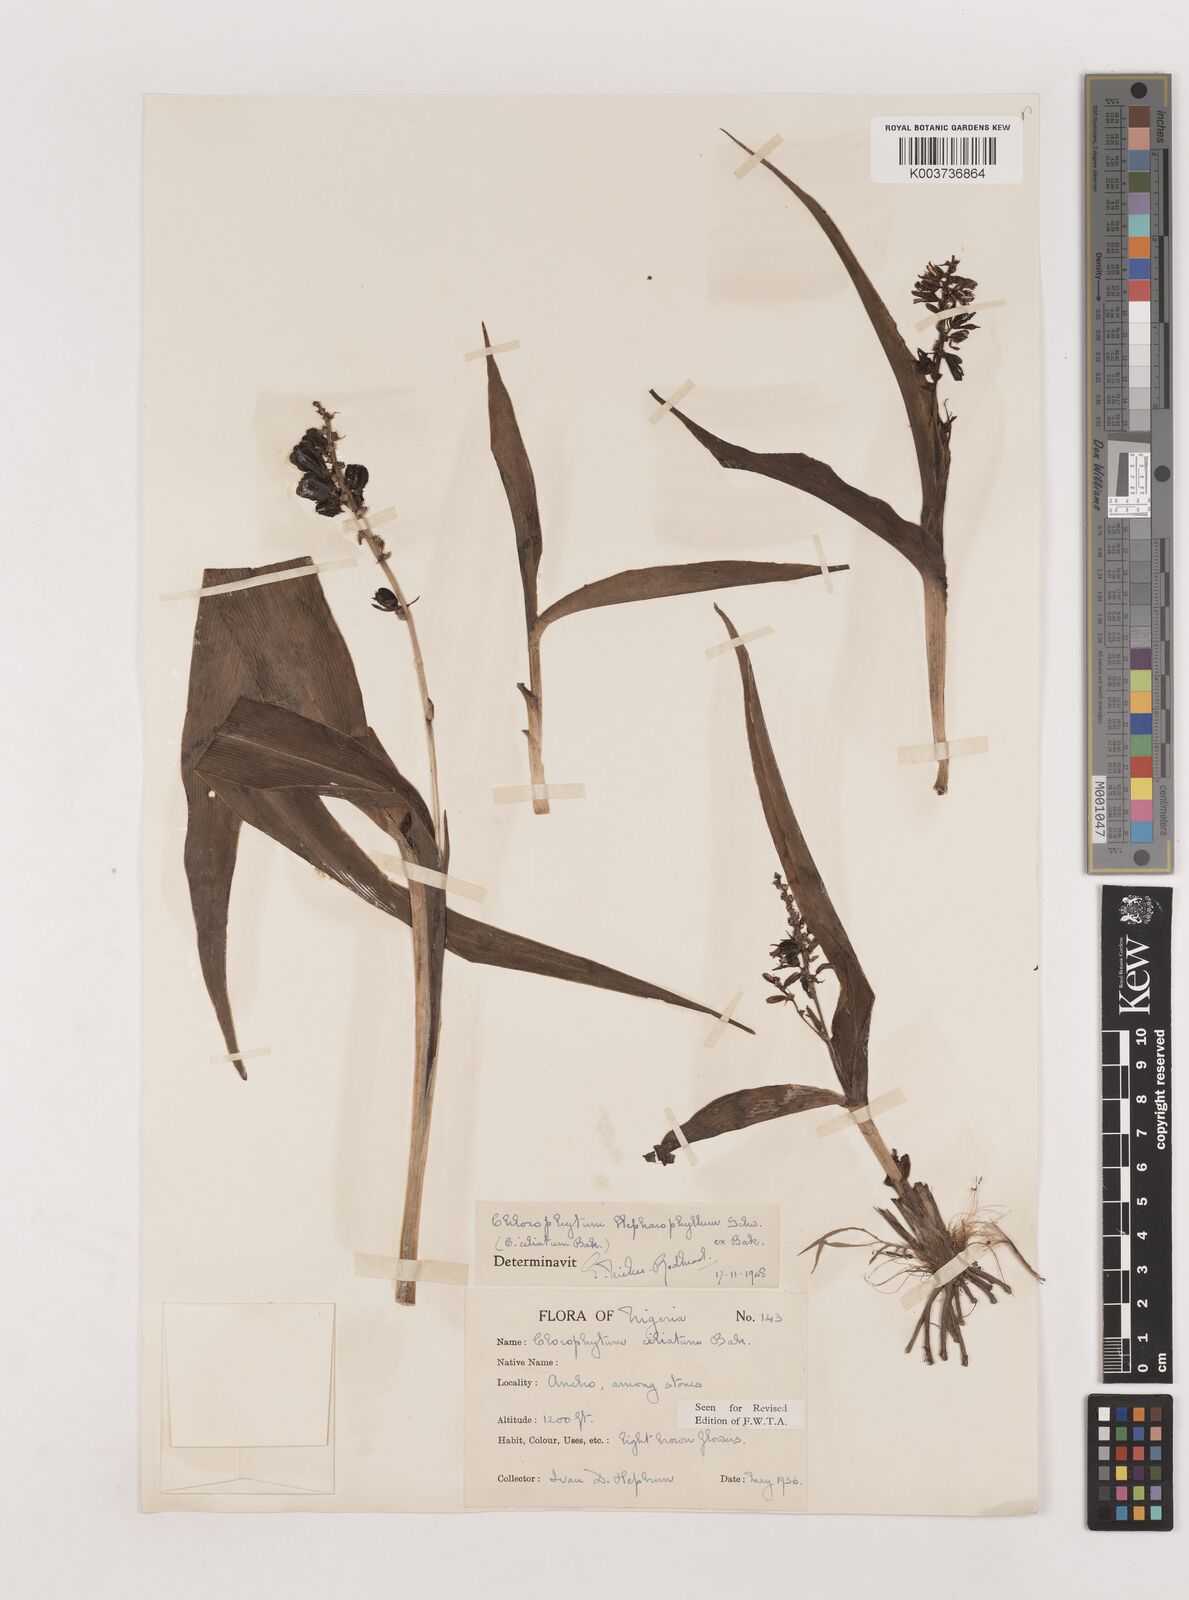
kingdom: Plantae
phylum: Tracheophyta
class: Liliopsida
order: Asparagales
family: Asparagaceae
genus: Chlorophytum
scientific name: Chlorophytum blepharophyllum
